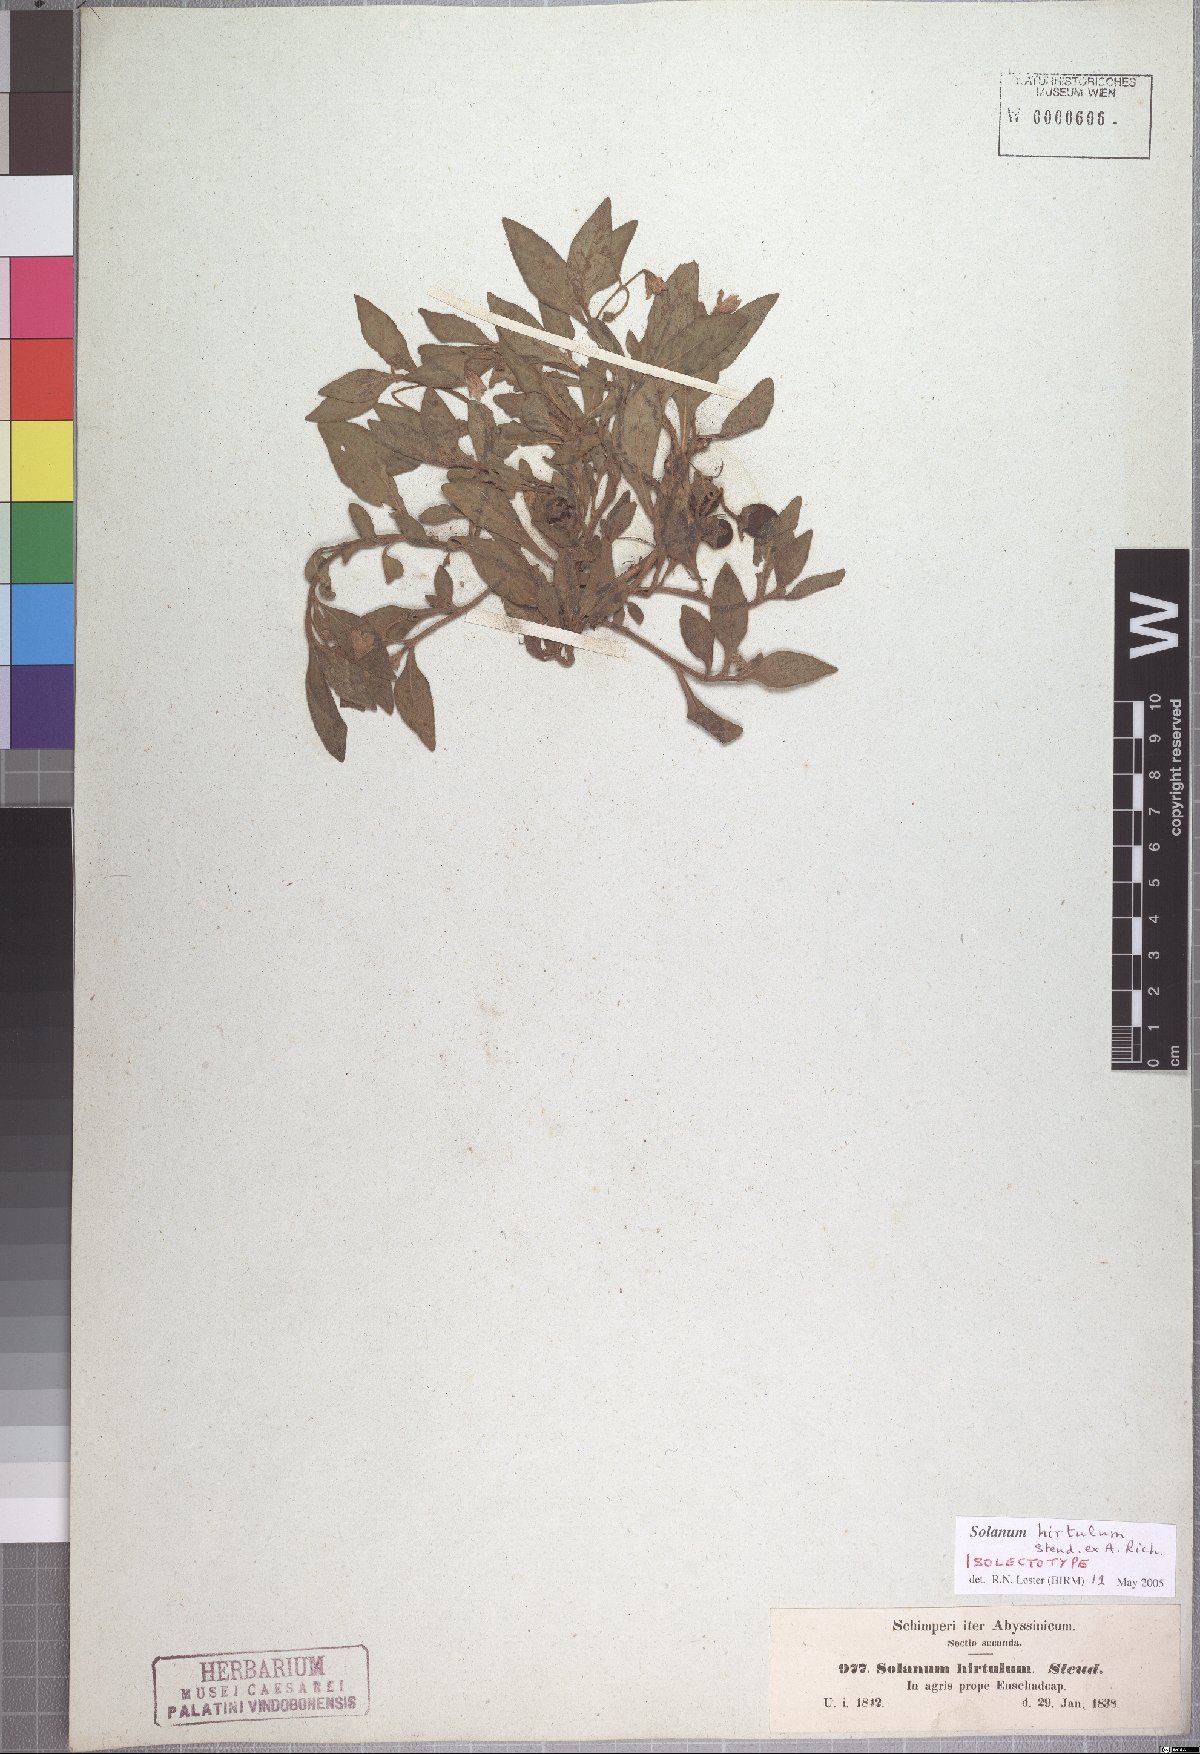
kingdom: Plantae
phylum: Tracheophyta
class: Magnoliopsida
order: Solanales
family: Solanaceae
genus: Solanum
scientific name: Solanum hirtulum
